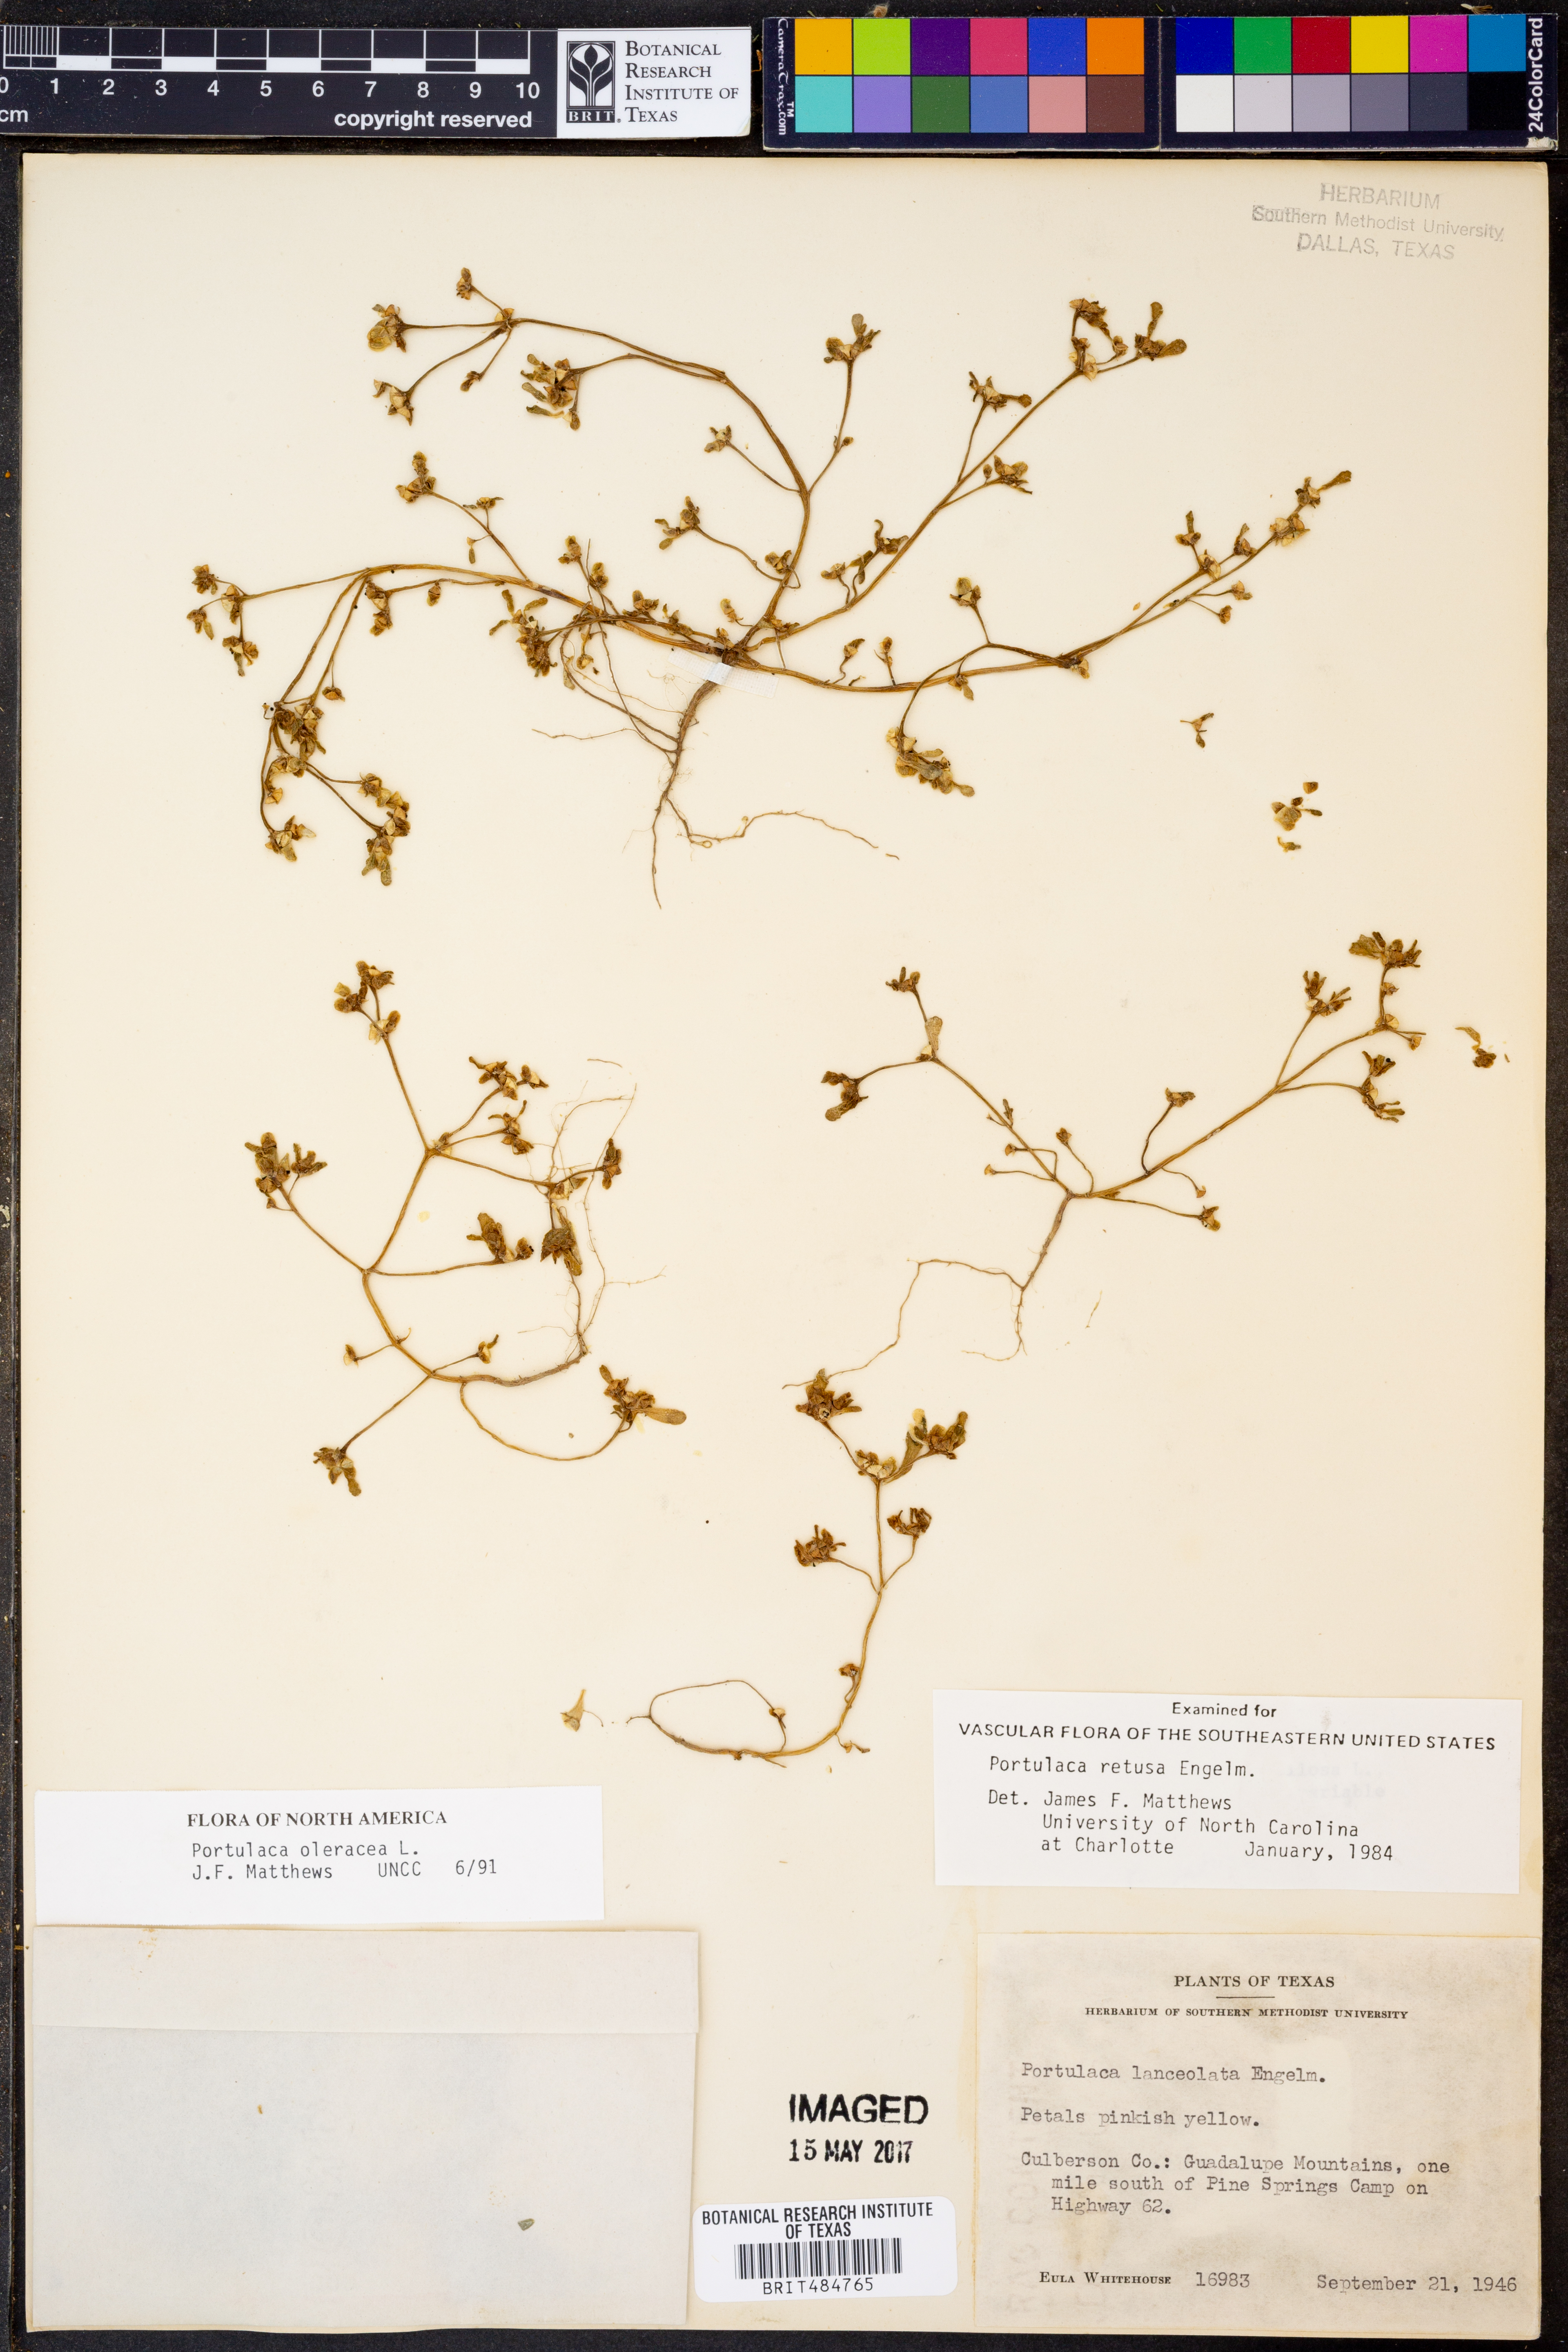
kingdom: Plantae
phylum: Tracheophyta
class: Magnoliopsida
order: Caryophyllales
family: Portulacaceae
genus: Portulaca
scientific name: Portulaca oleracea
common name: Common purslane
